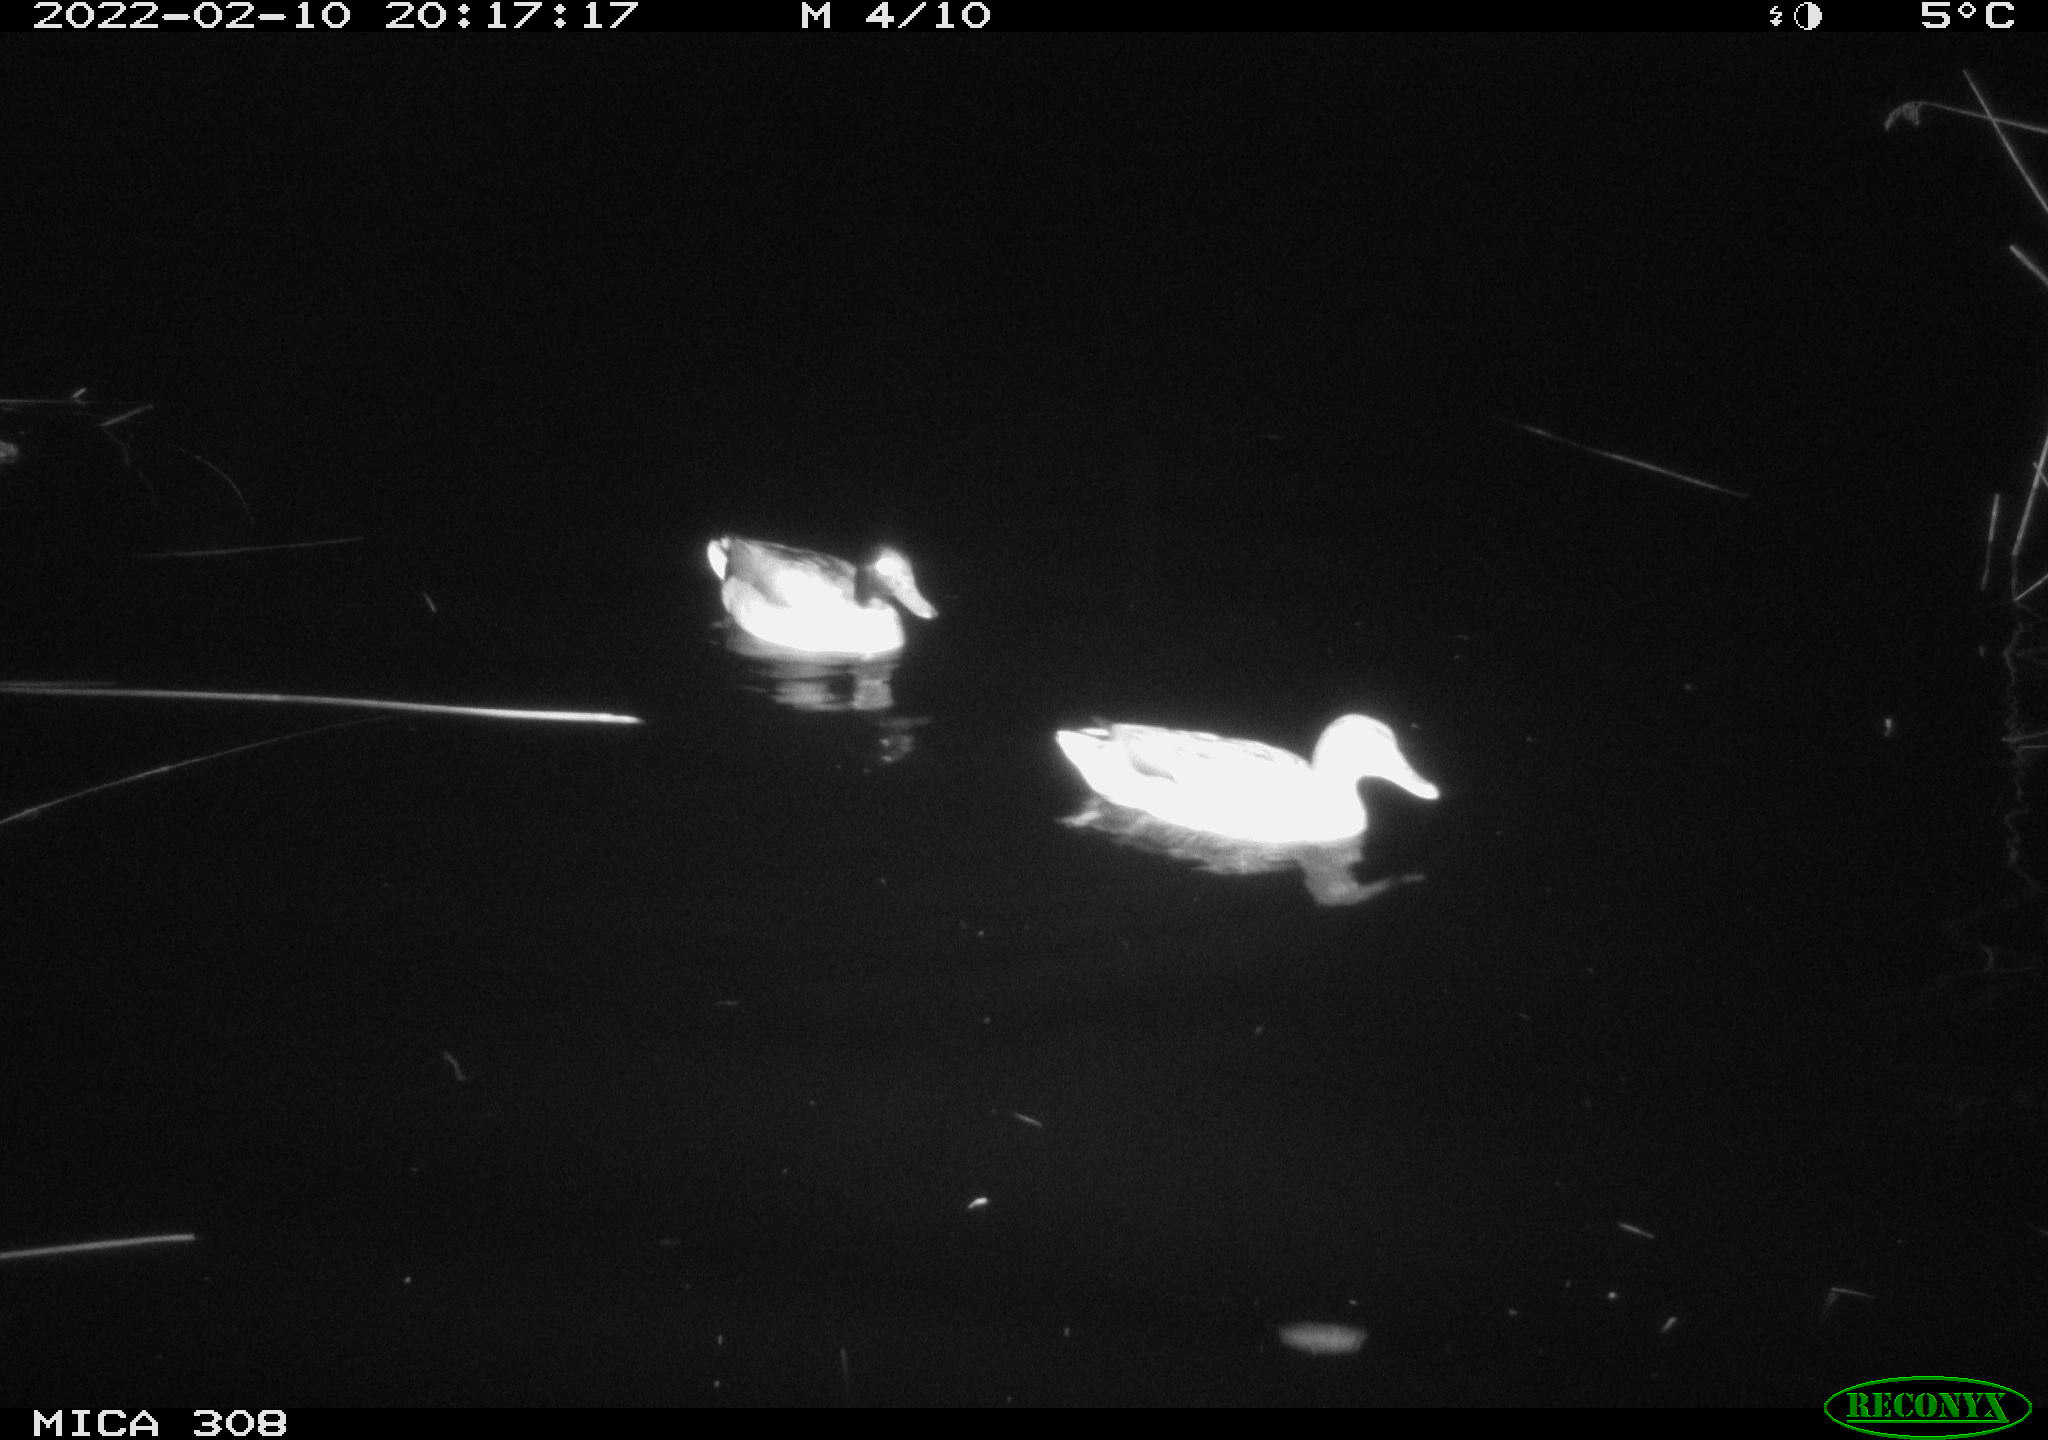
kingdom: Animalia
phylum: Chordata
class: Aves
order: Anseriformes
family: Anatidae
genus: Anas
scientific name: Anas platyrhynchos
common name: Mallard
